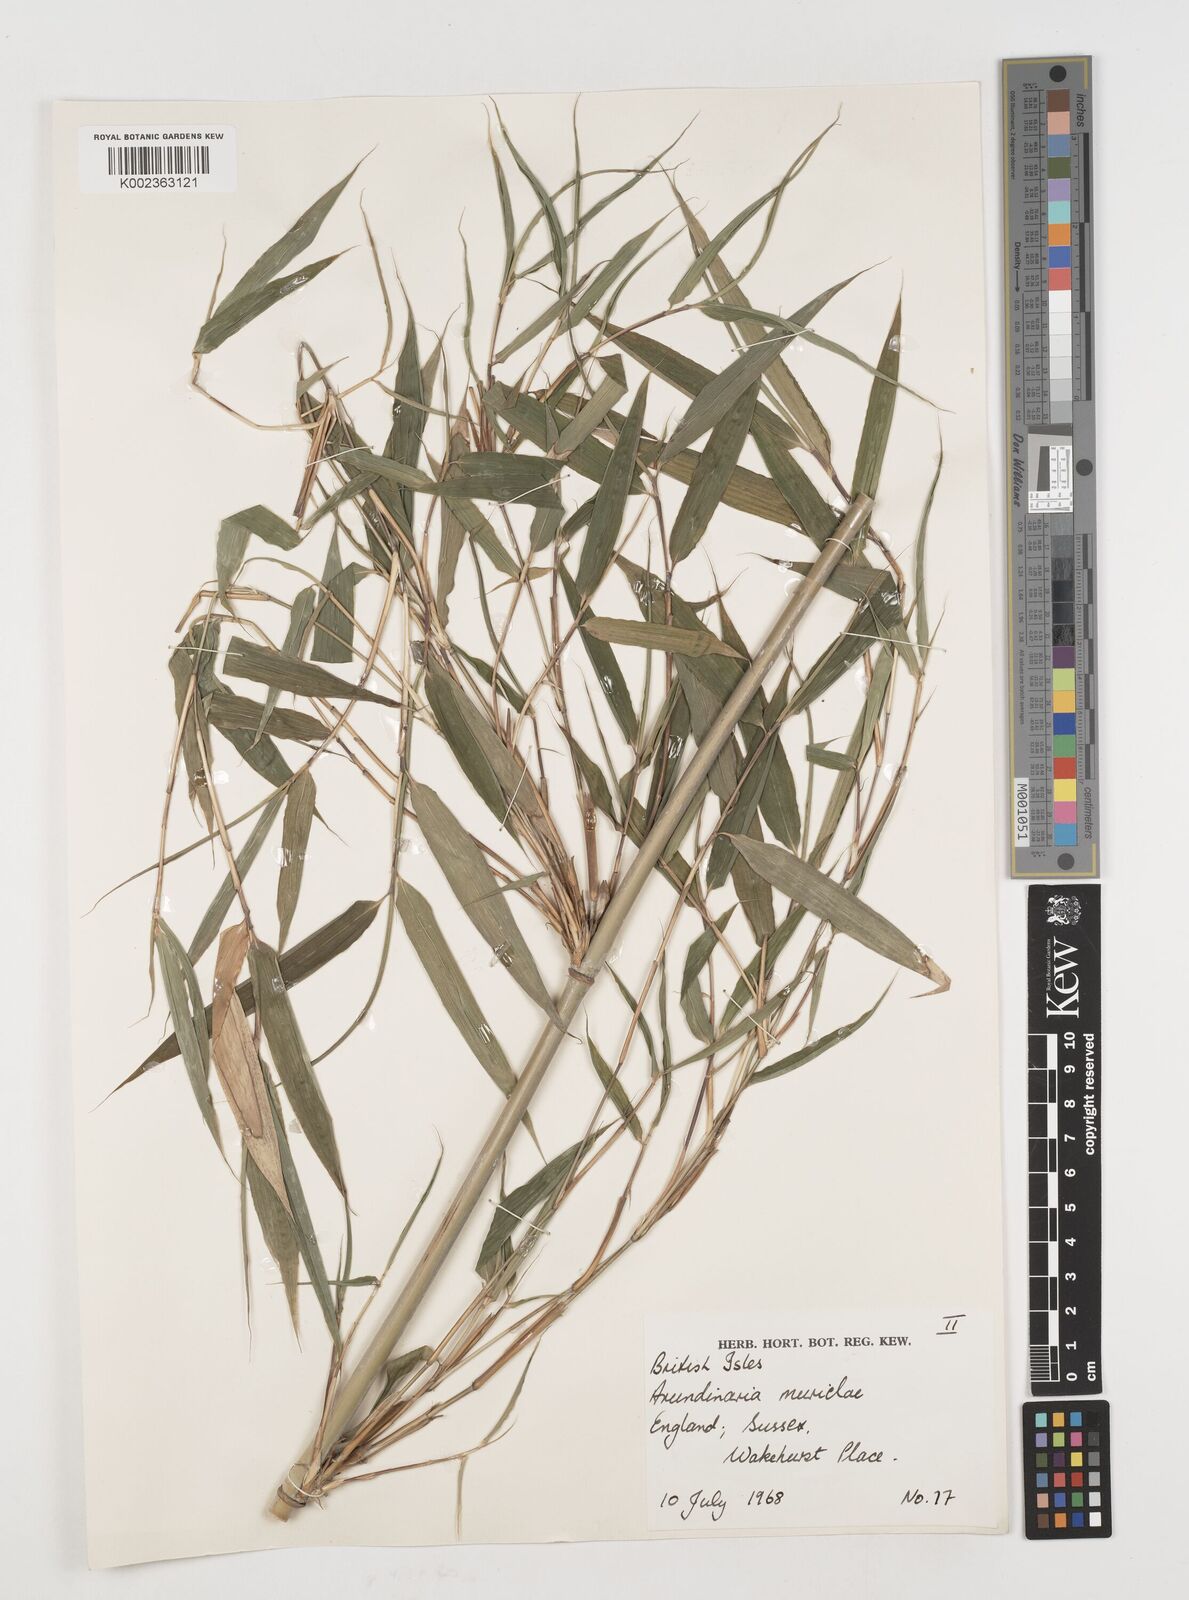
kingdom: Plantae
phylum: Tracheophyta
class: Liliopsida
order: Poales
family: Poaceae
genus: Fargesia
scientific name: Fargesia murielae
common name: Umbrella bamboo
